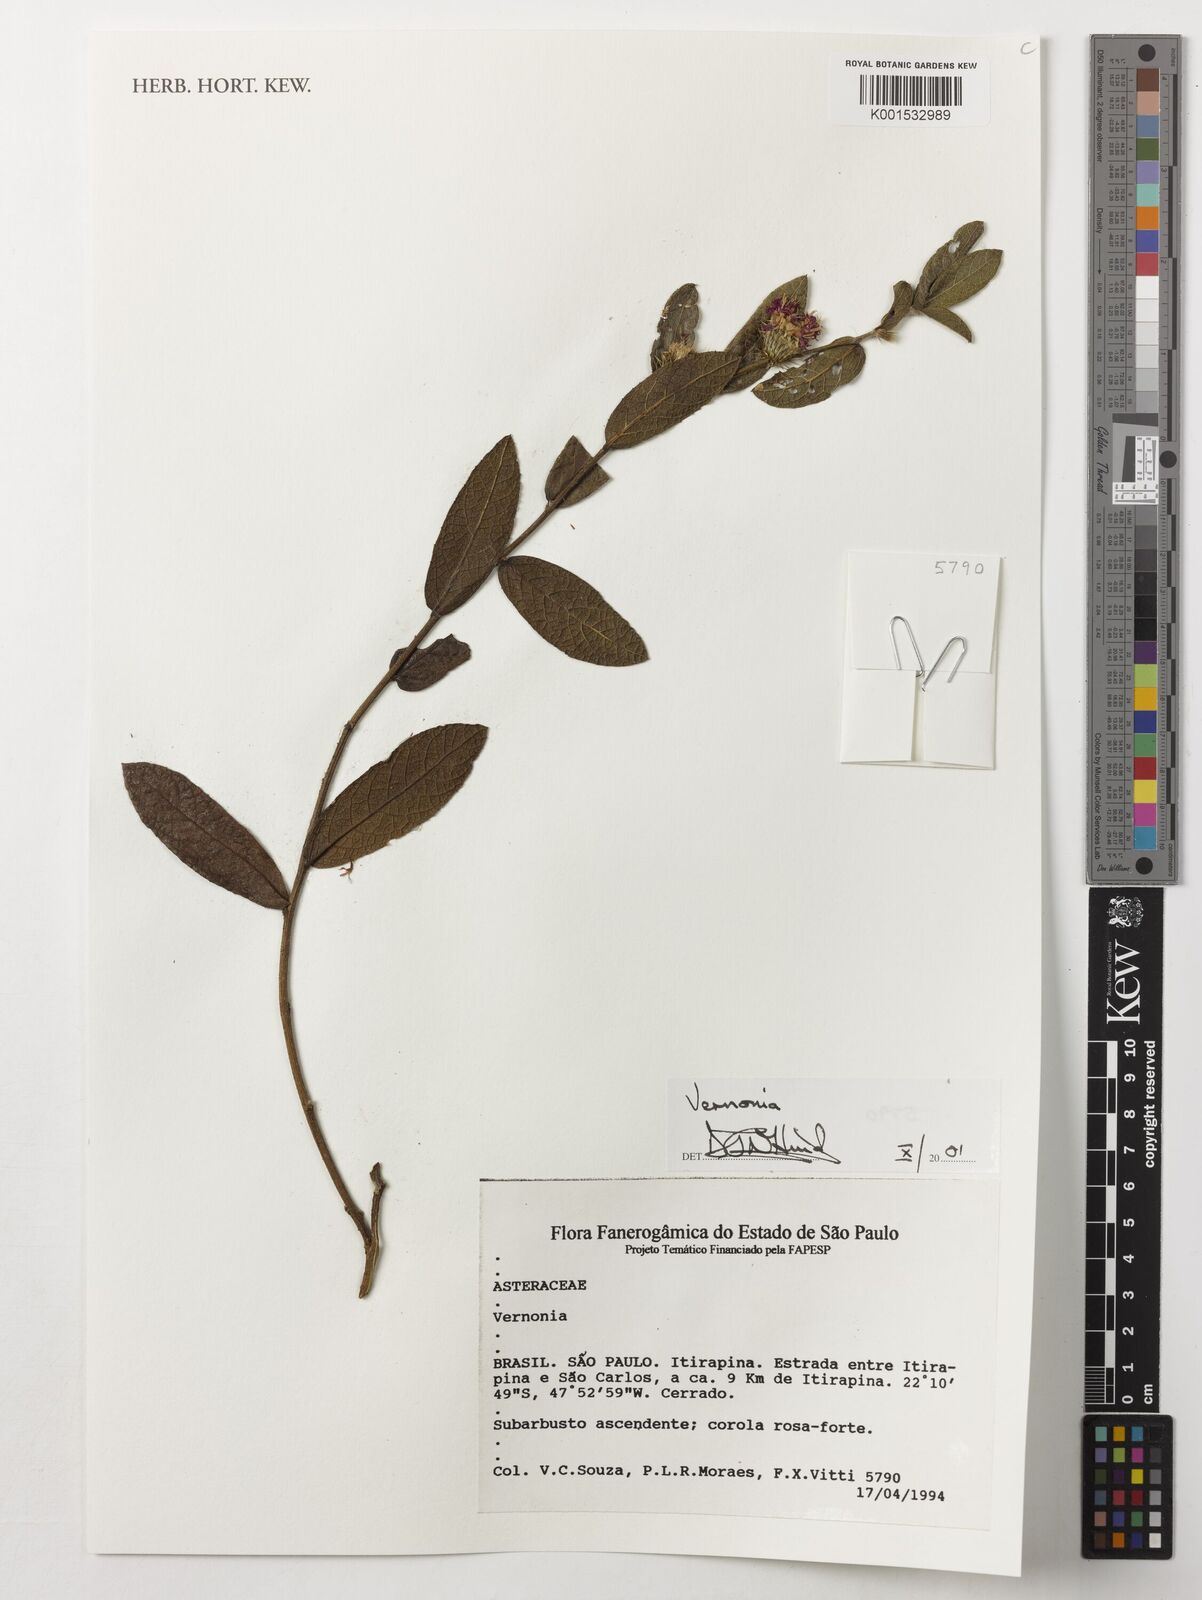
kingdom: Plantae
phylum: Tracheophyta
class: Magnoliopsida
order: Asterales
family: Asteraceae
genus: Vernonia
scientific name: Vernonia
